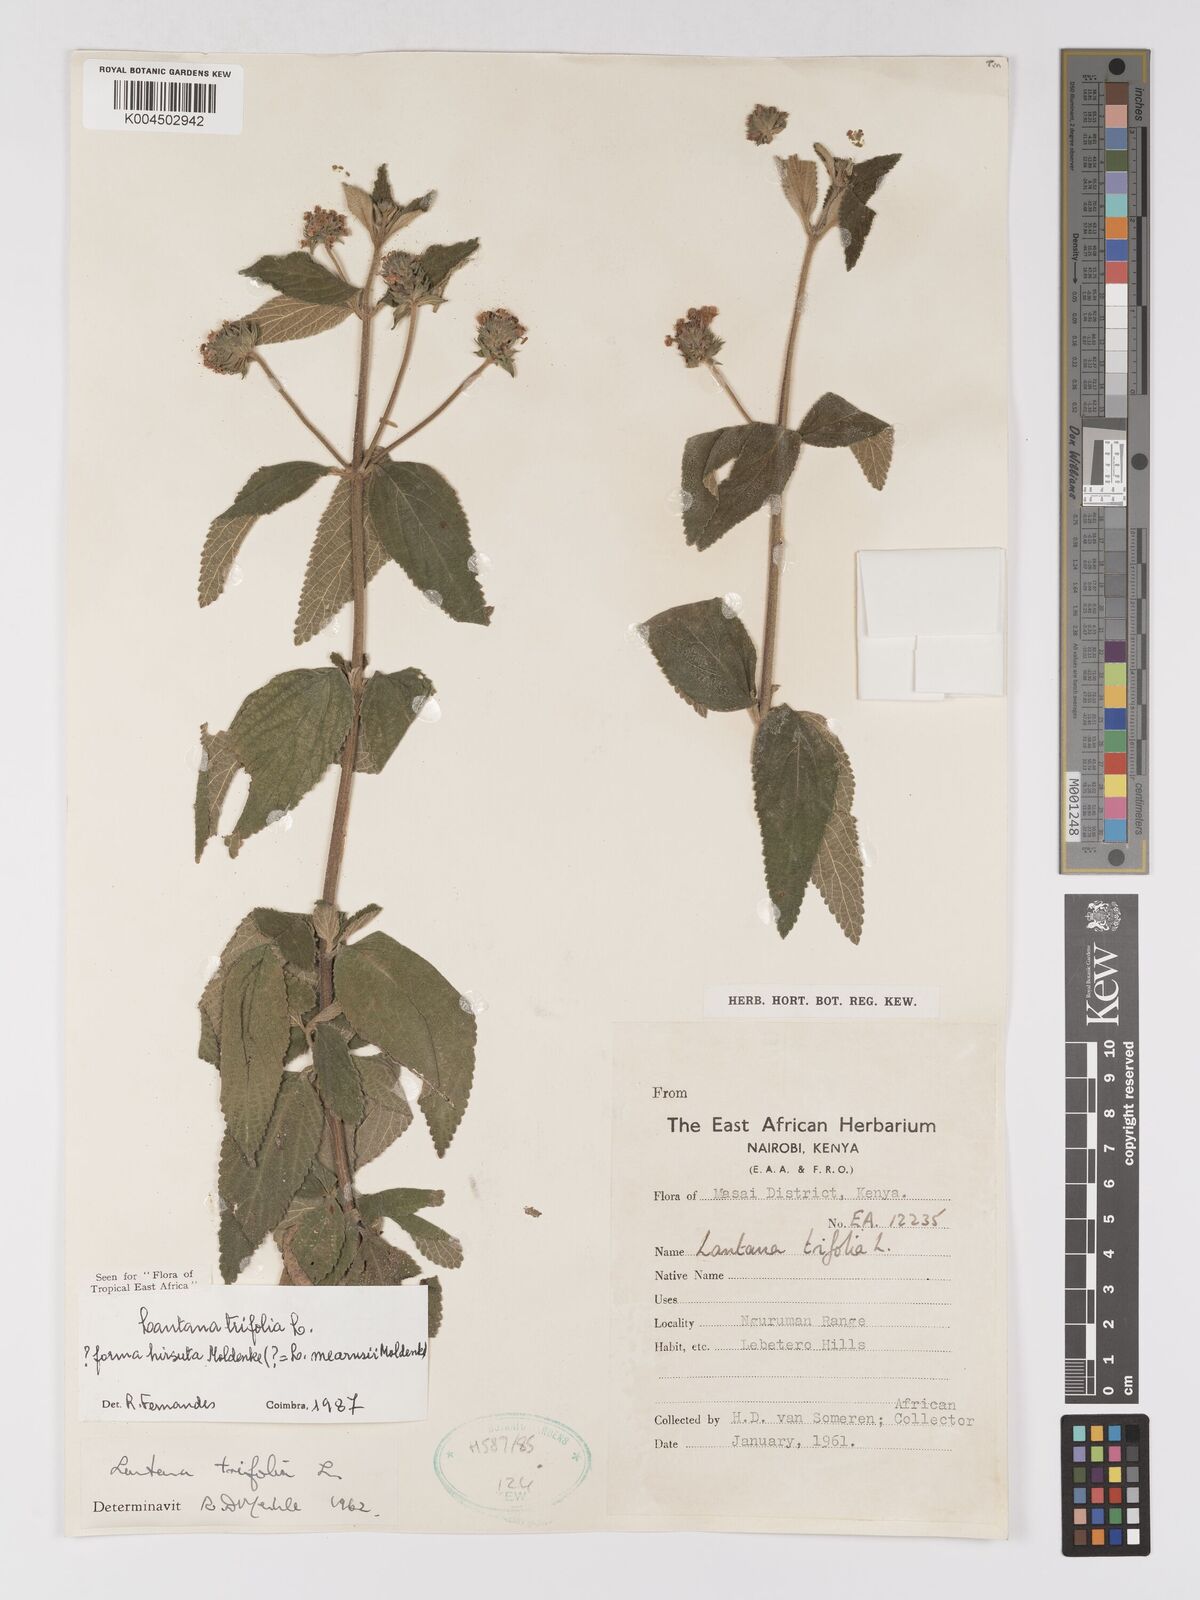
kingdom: Plantae
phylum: Tracheophyta
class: Magnoliopsida
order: Lamiales
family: Verbenaceae
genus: Lantana
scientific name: Lantana trifolia
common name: Sweet-sage
